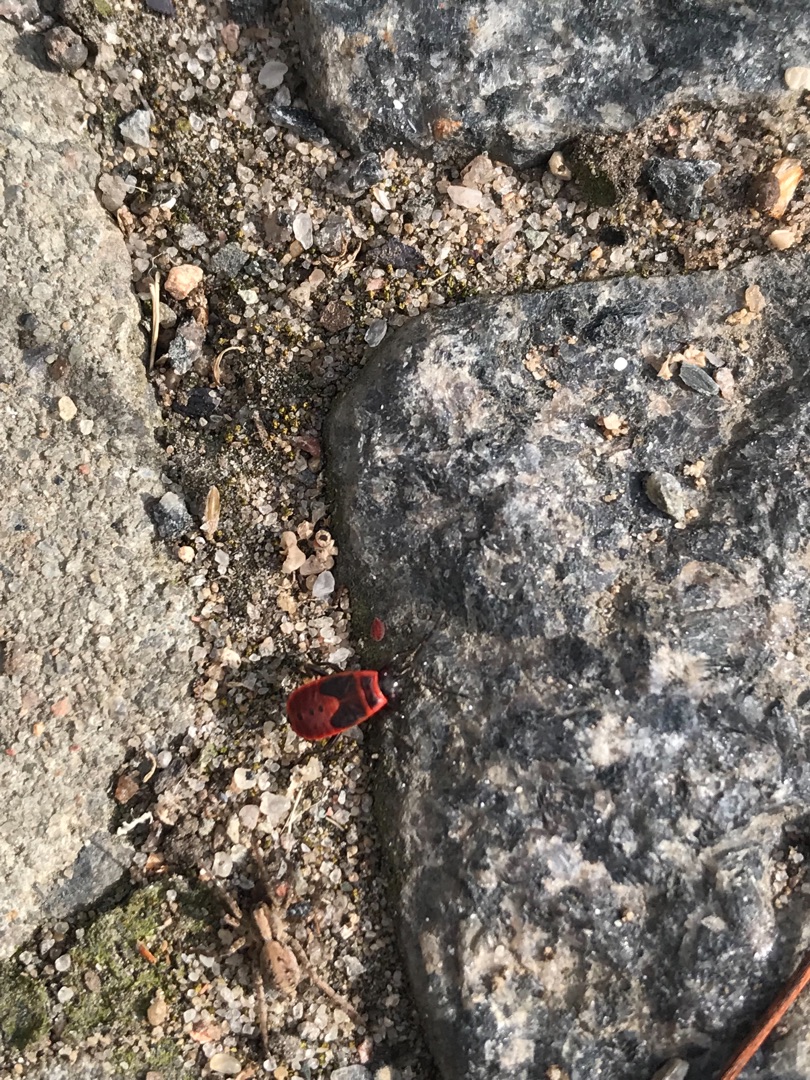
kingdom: Animalia
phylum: Arthropoda
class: Insecta
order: Hemiptera
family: Pyrrhocoridae
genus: Pyrrhocoris
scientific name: Pyrrhocoris apterus
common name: Ildtæge
